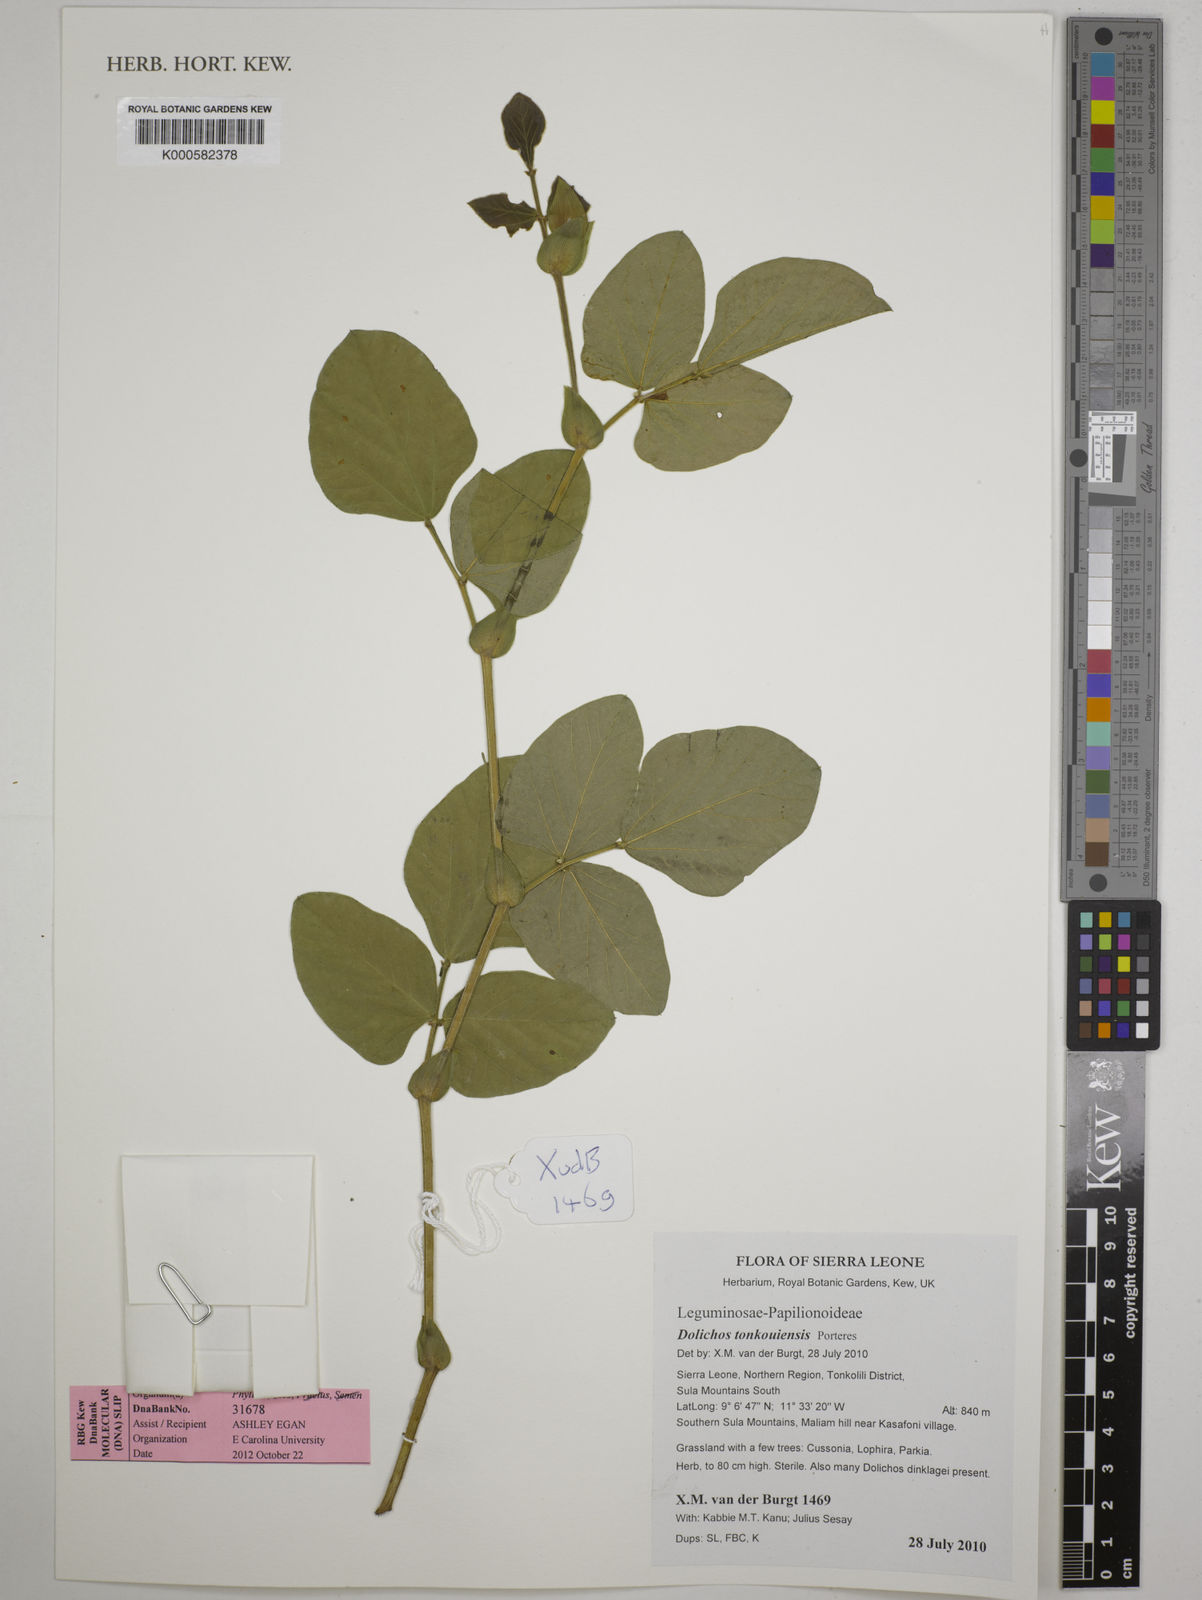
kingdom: Plantae
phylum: Tracheophyta
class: Magnoliopsida
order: Fabales
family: Fabaceae
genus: Dolichos
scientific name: Dolichos tonkouiensis
